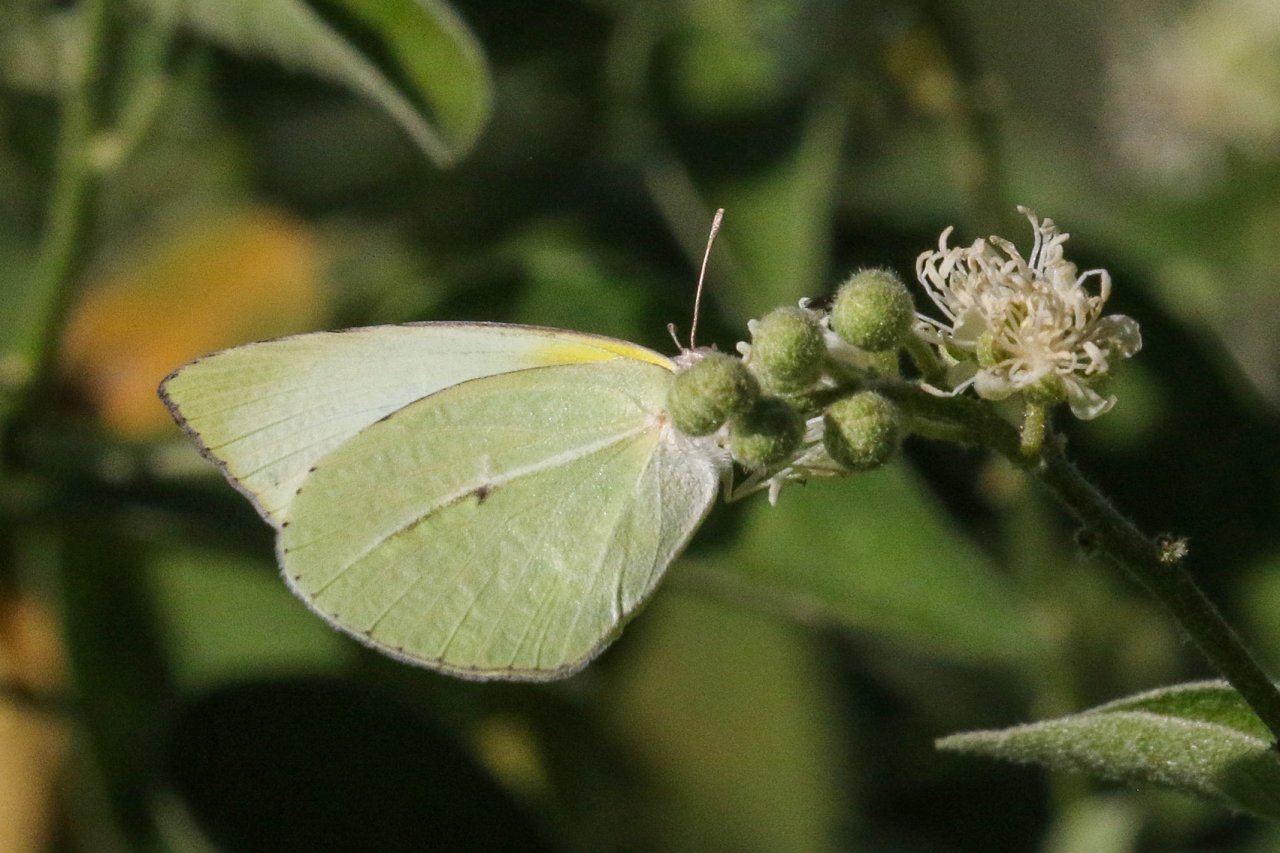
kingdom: Animalia
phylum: Arthropoda
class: Insecta
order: Lepidoptera
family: Pieridae
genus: Kricogonia
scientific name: Kricogonia lyside
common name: Lyside Sulphur
